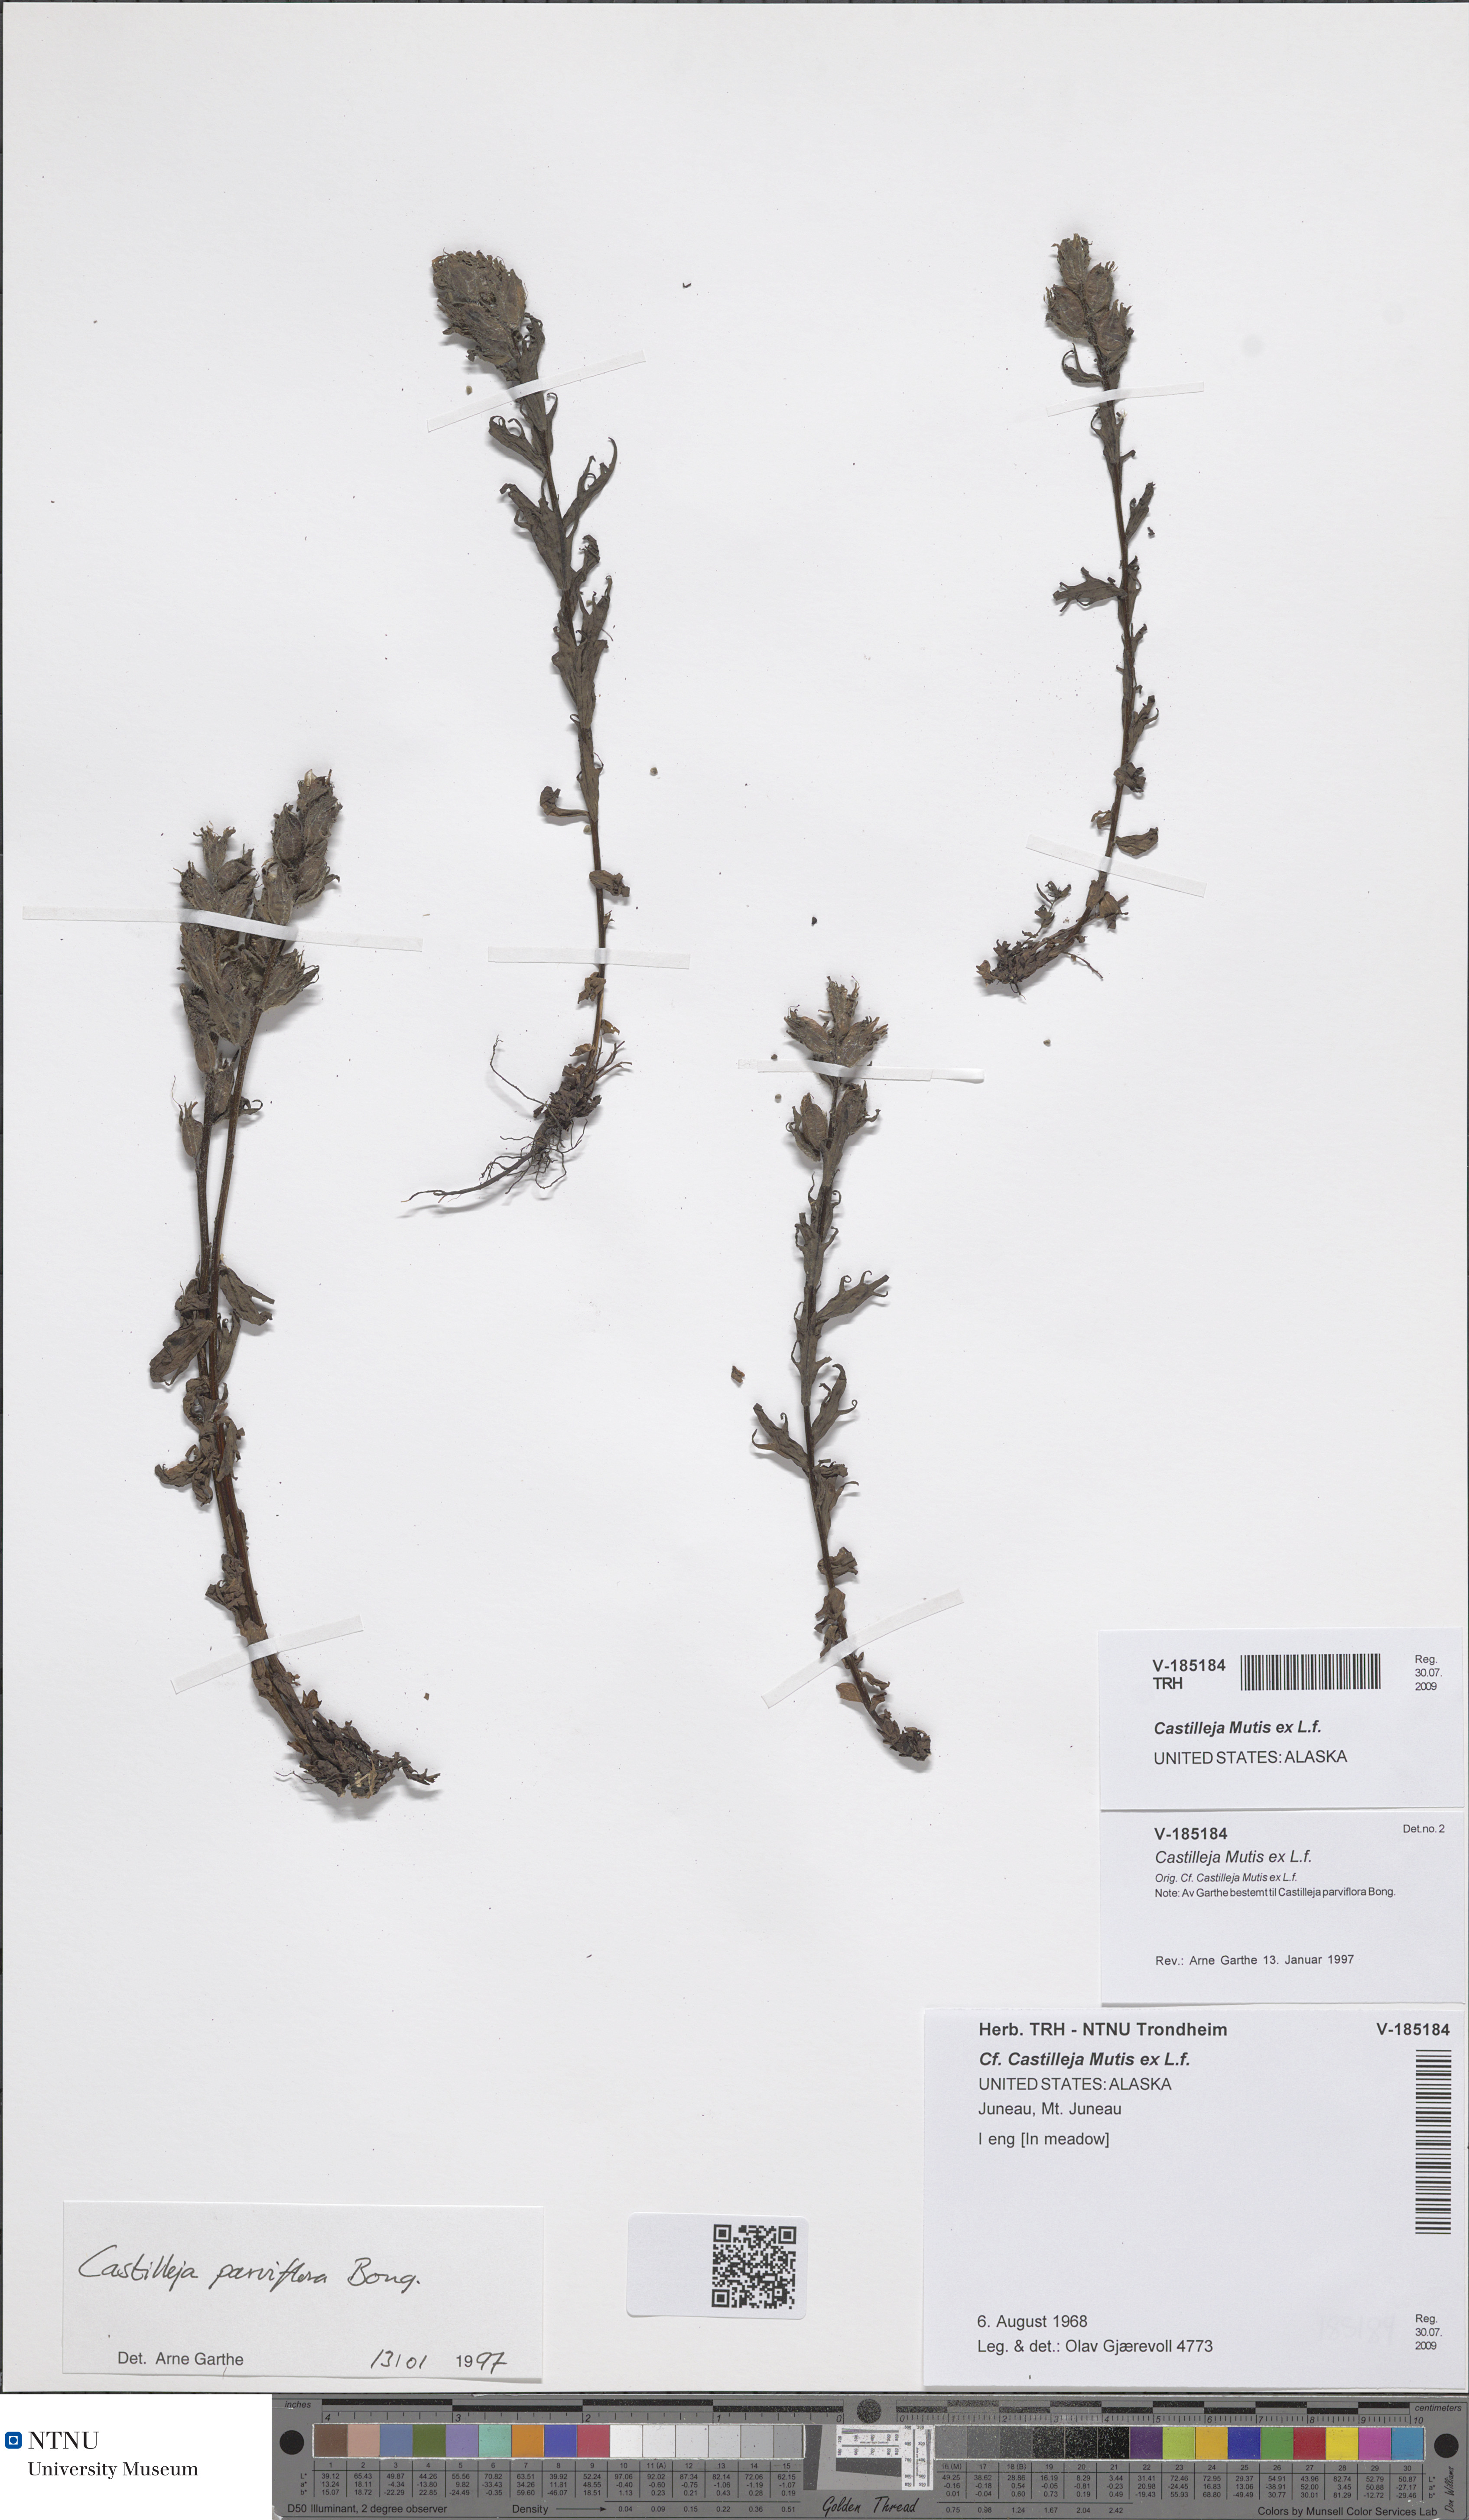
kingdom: Plantae
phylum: Tracheophyta
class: Magnoliopsida
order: Lamiales
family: Orobanchaceae
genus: Castilleja
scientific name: Castilleja
